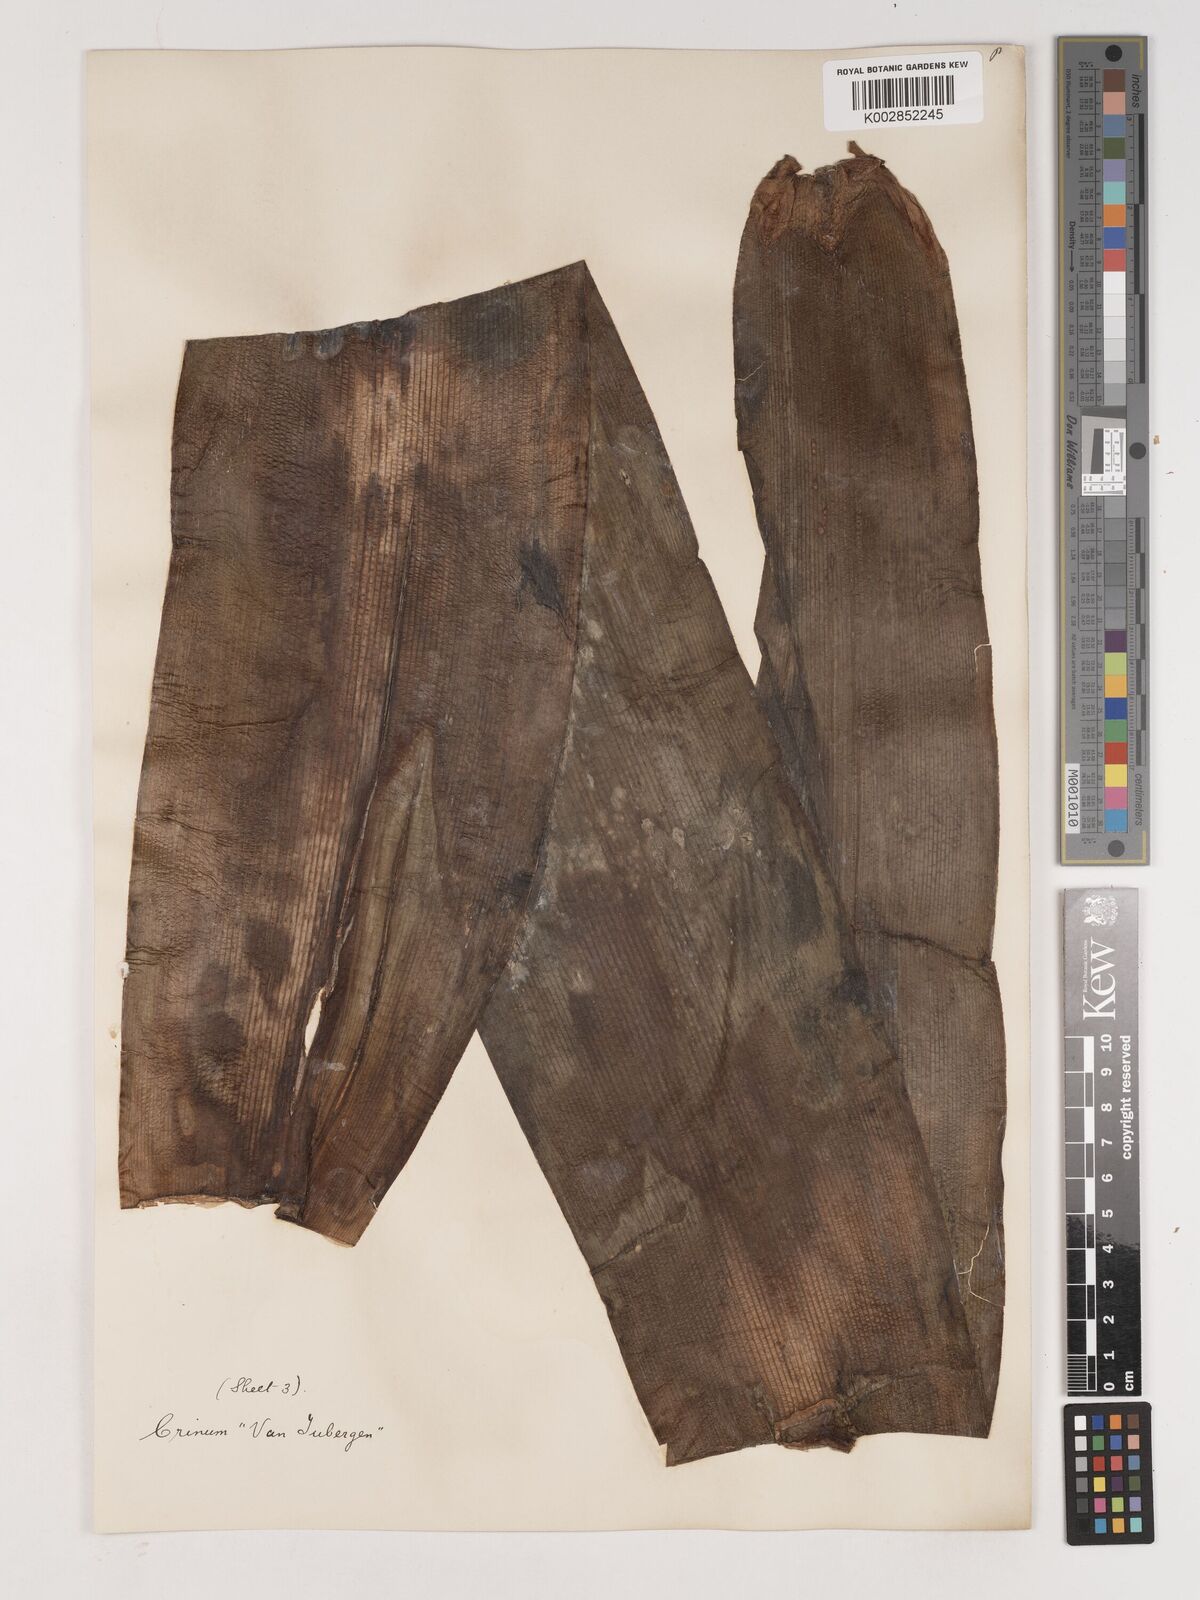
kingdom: Plantae
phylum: Tracheophyta
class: Liliopsida
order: Asparagales
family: Amaryllidaceae
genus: Ammocharis
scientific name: Ammocharis longifolia
